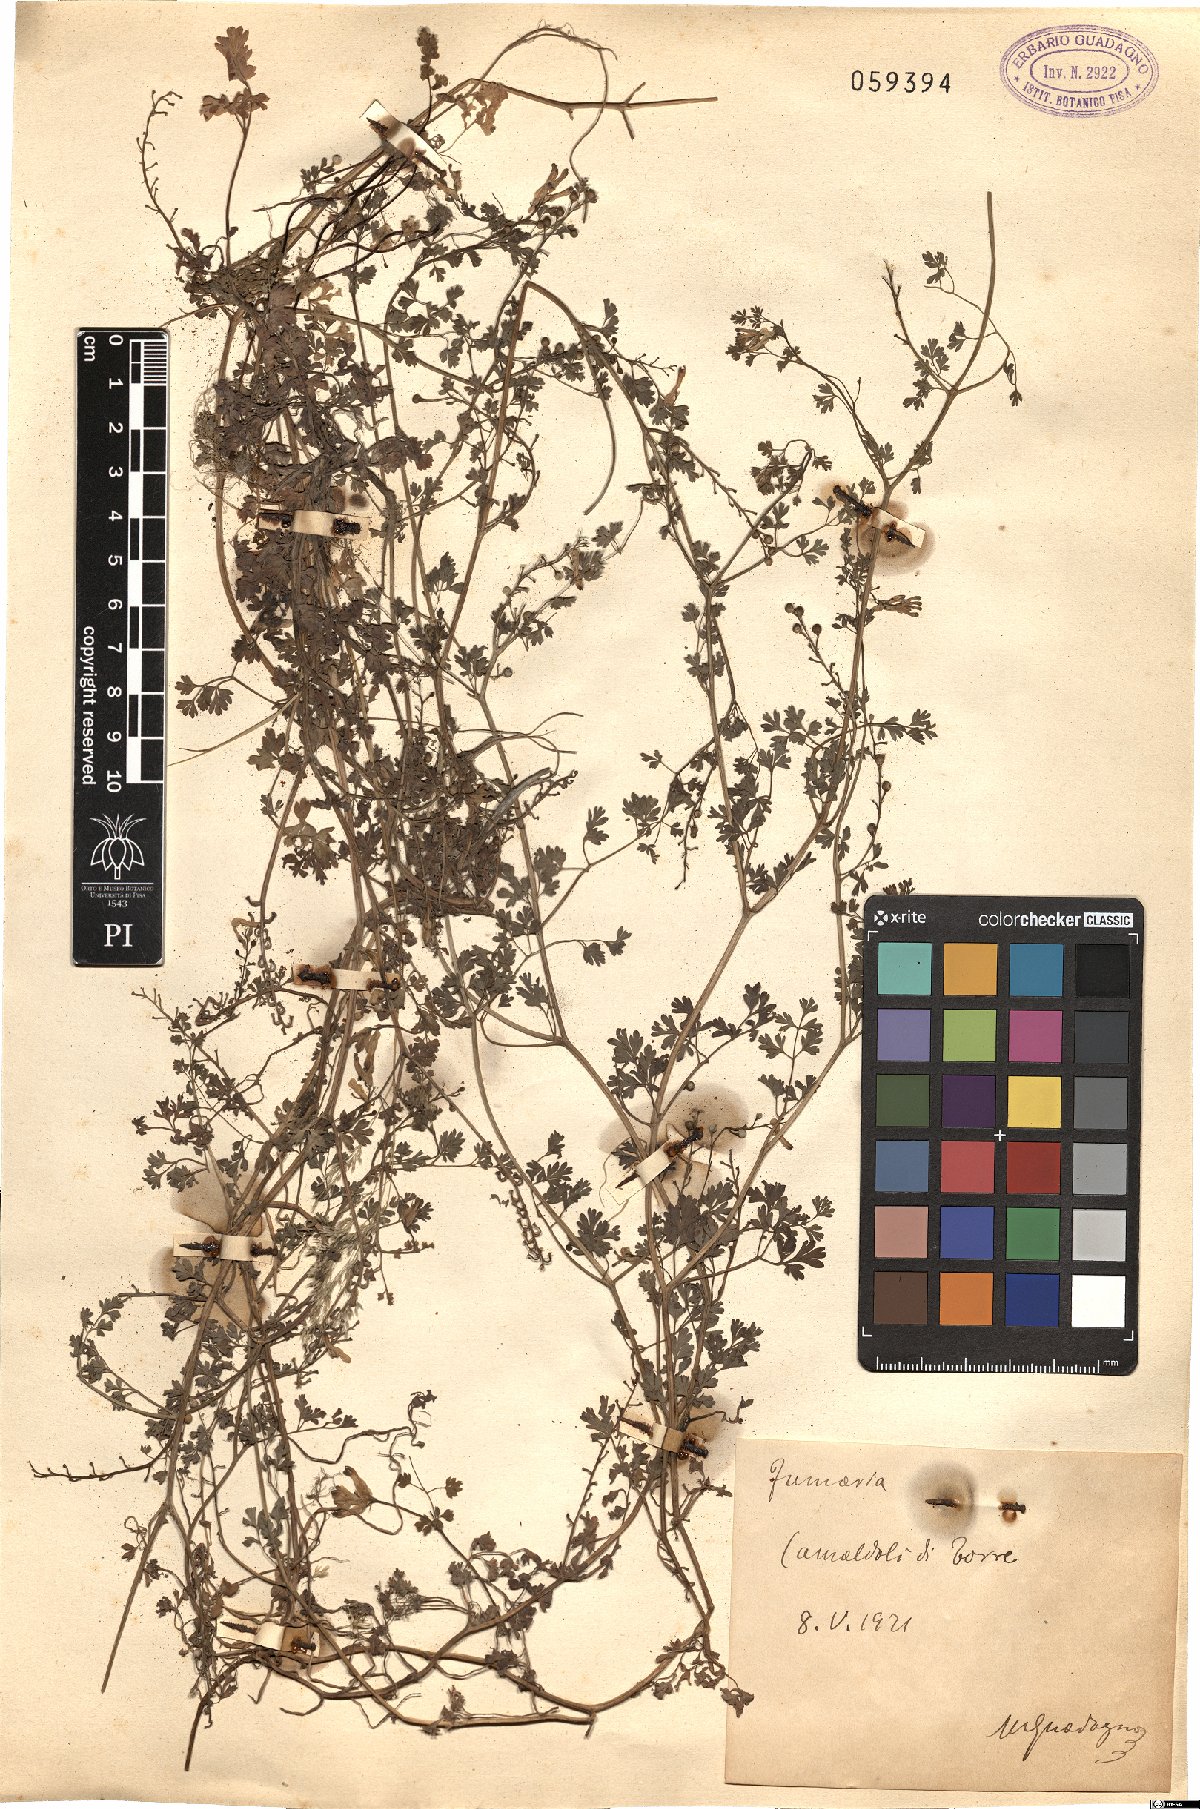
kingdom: Plantae
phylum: Tracheophyta
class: Magnoliopsida
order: Ranunculales
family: Papaveraceae
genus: Fumaria
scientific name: Fumaria
